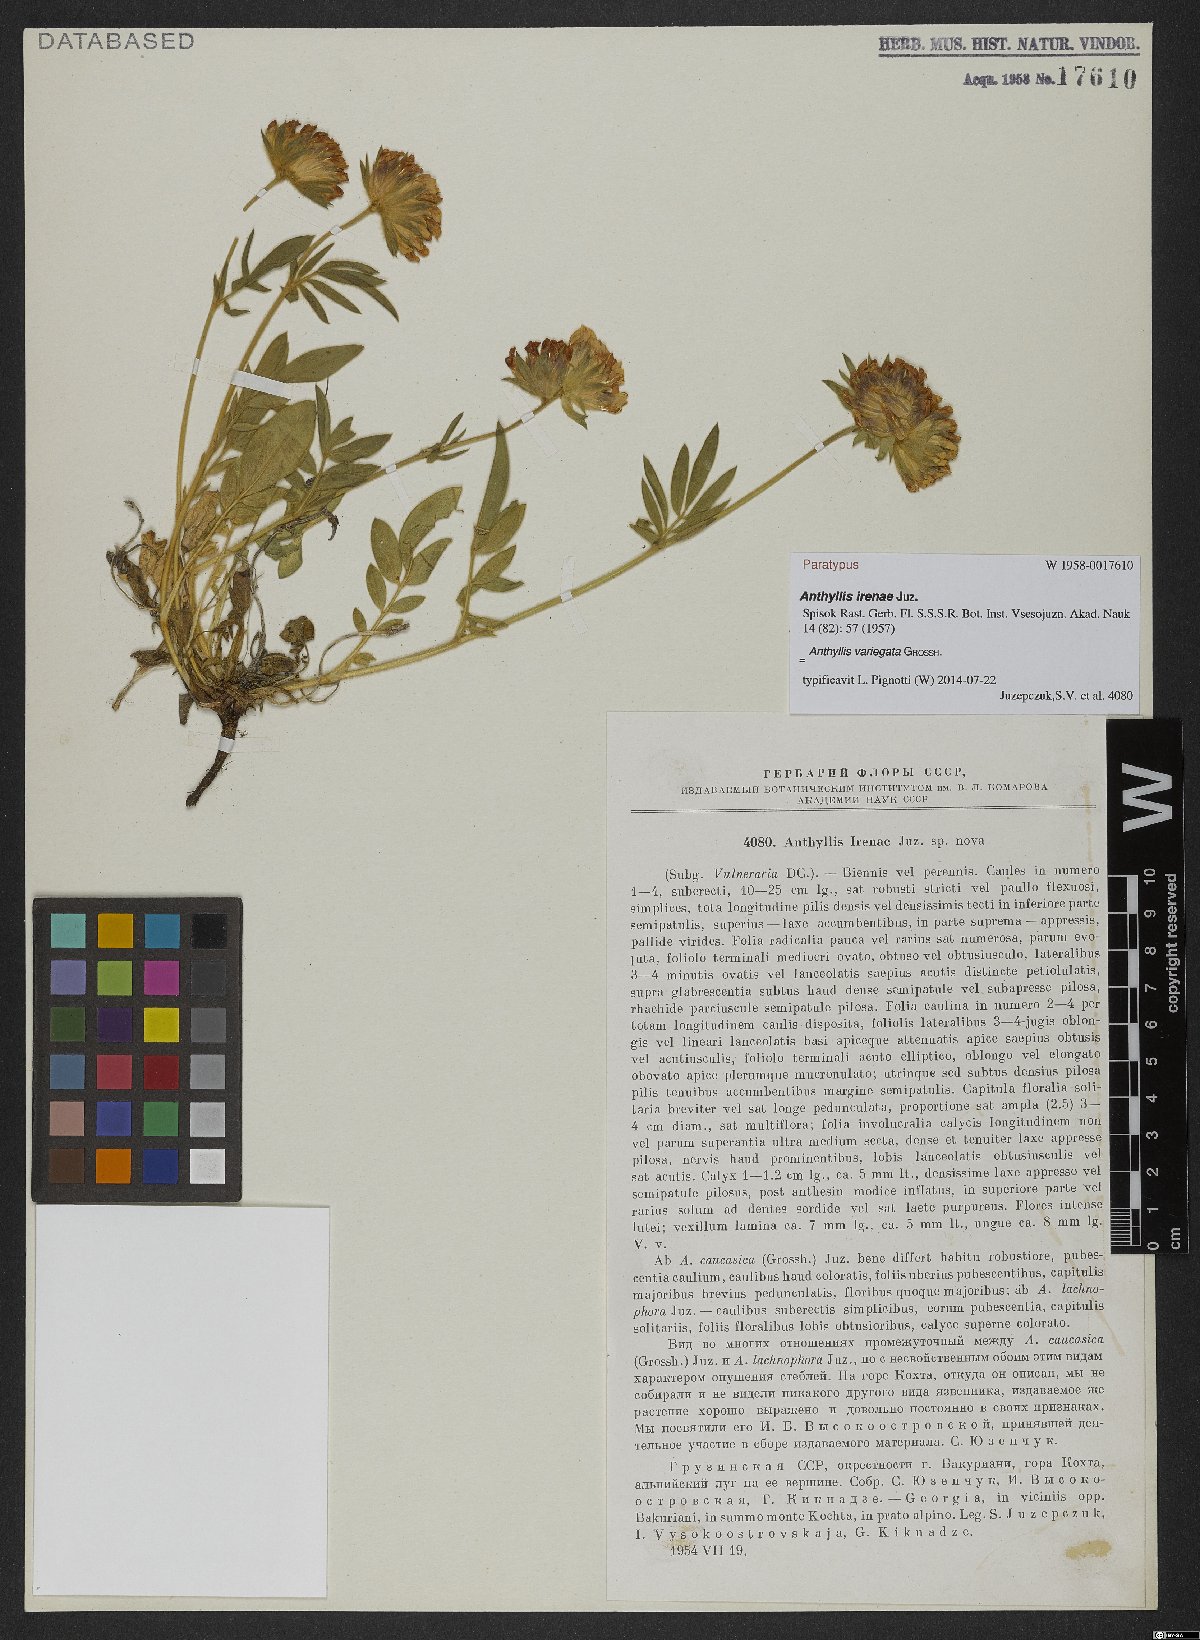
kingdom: Plantae
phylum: Tracheophyta
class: Magnoliopsida
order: Fabales
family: Fabaceae
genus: Anthyllis
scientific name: Anthyllis variegata
